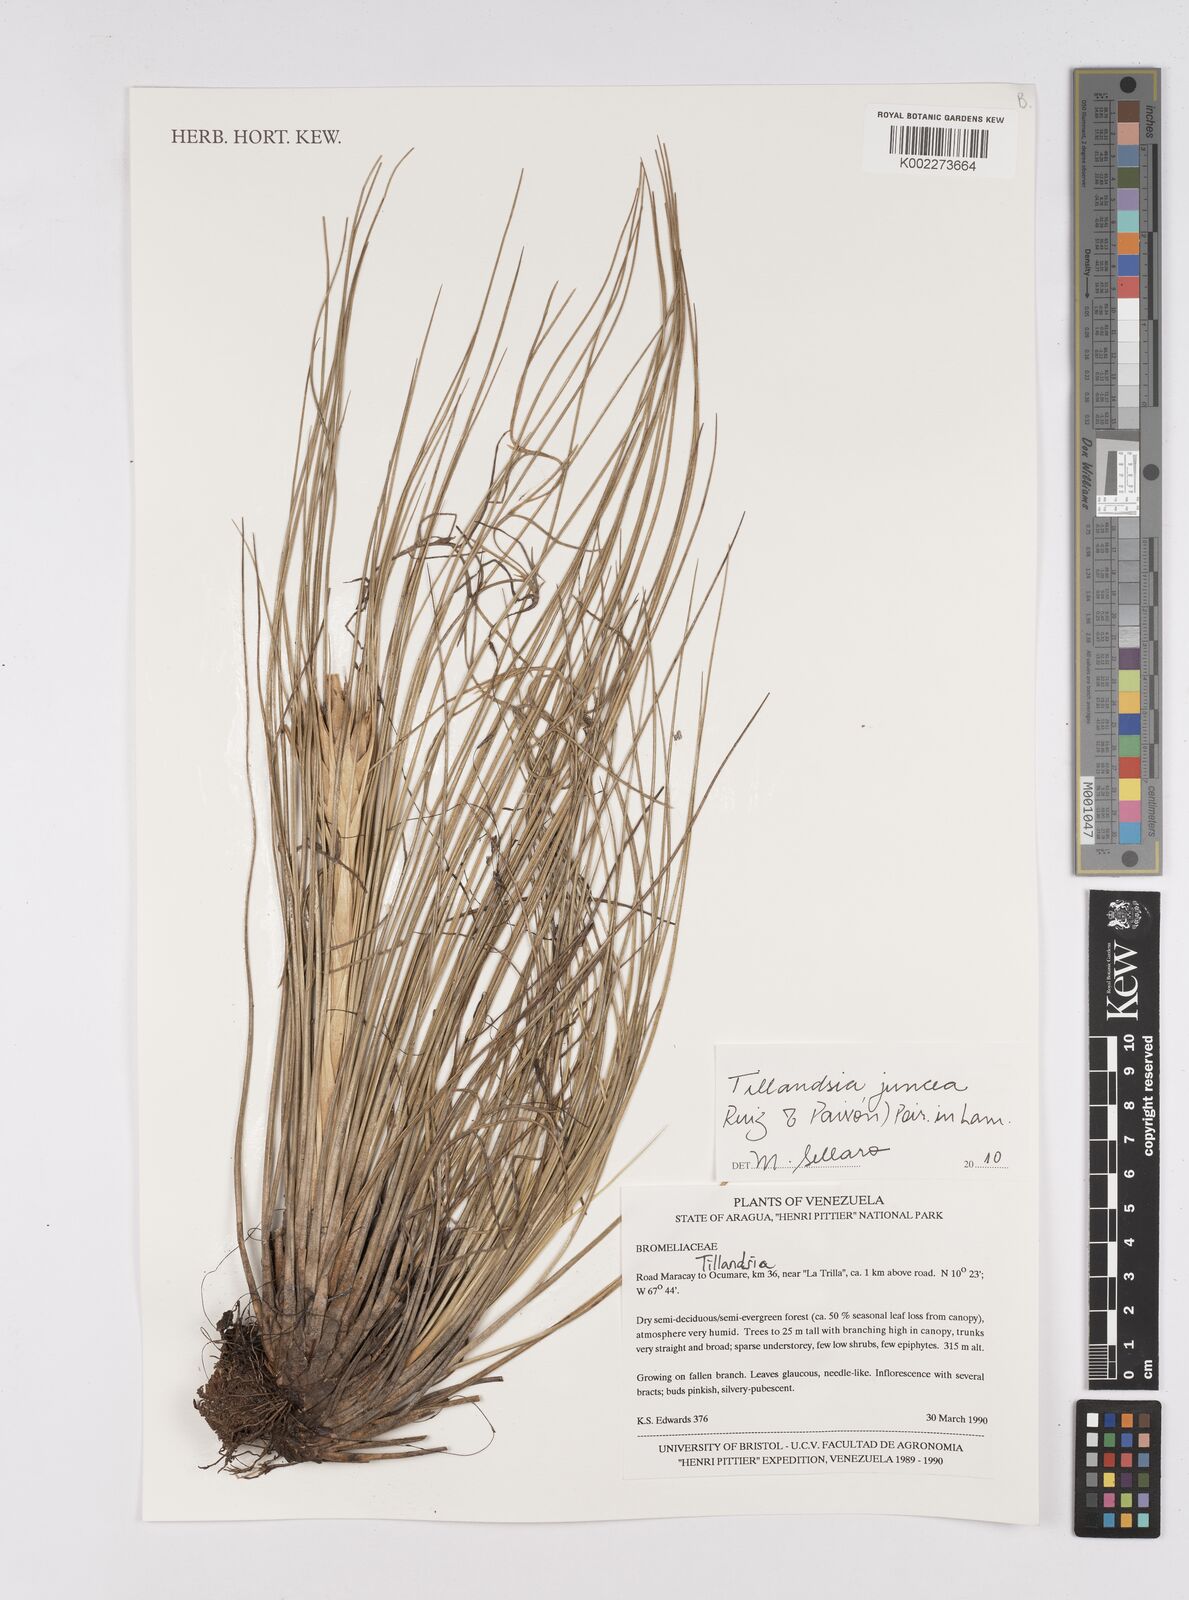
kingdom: Plantae
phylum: Tracheophyta
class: Liliopsida
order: Poales
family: Bromeliaceae
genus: Tillandsia
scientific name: Tillandsia juncea
